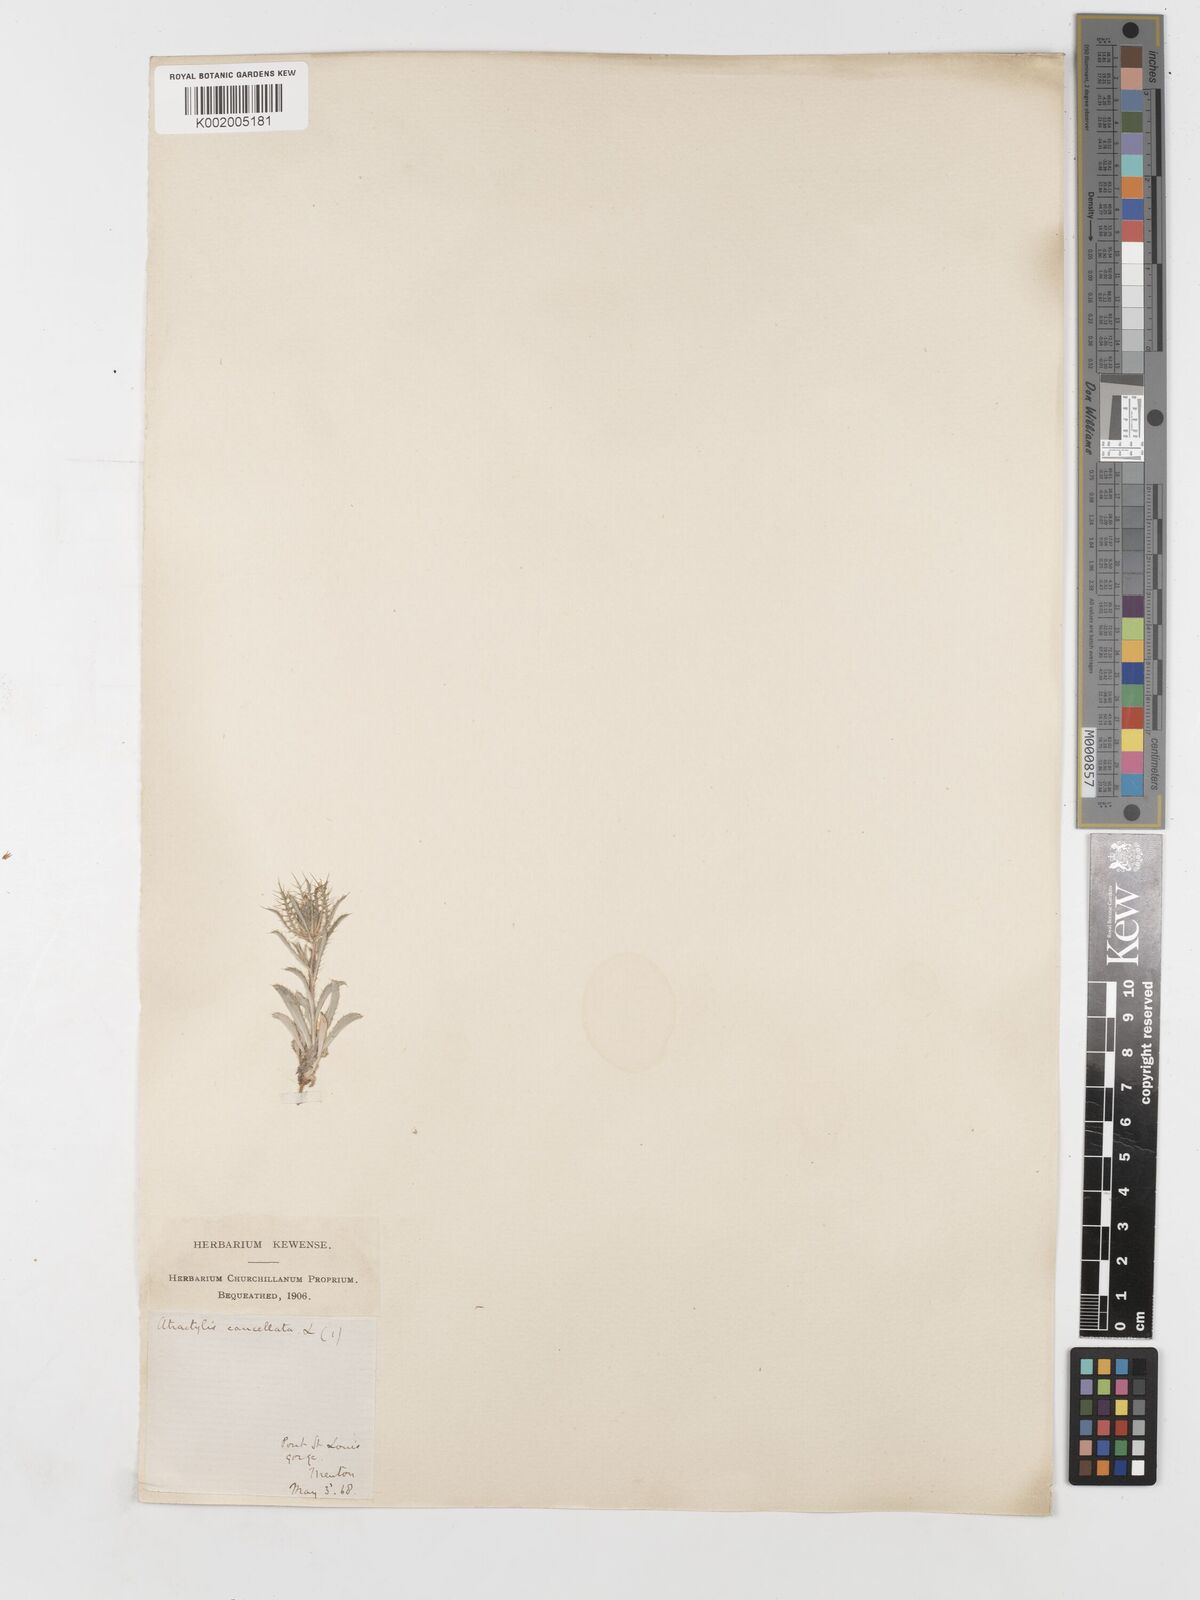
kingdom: Plantae
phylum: Tracheophyta
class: Magnoliopsida
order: Asterales
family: Asteraceae
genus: Atractylis
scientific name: Atractylis cancellata
